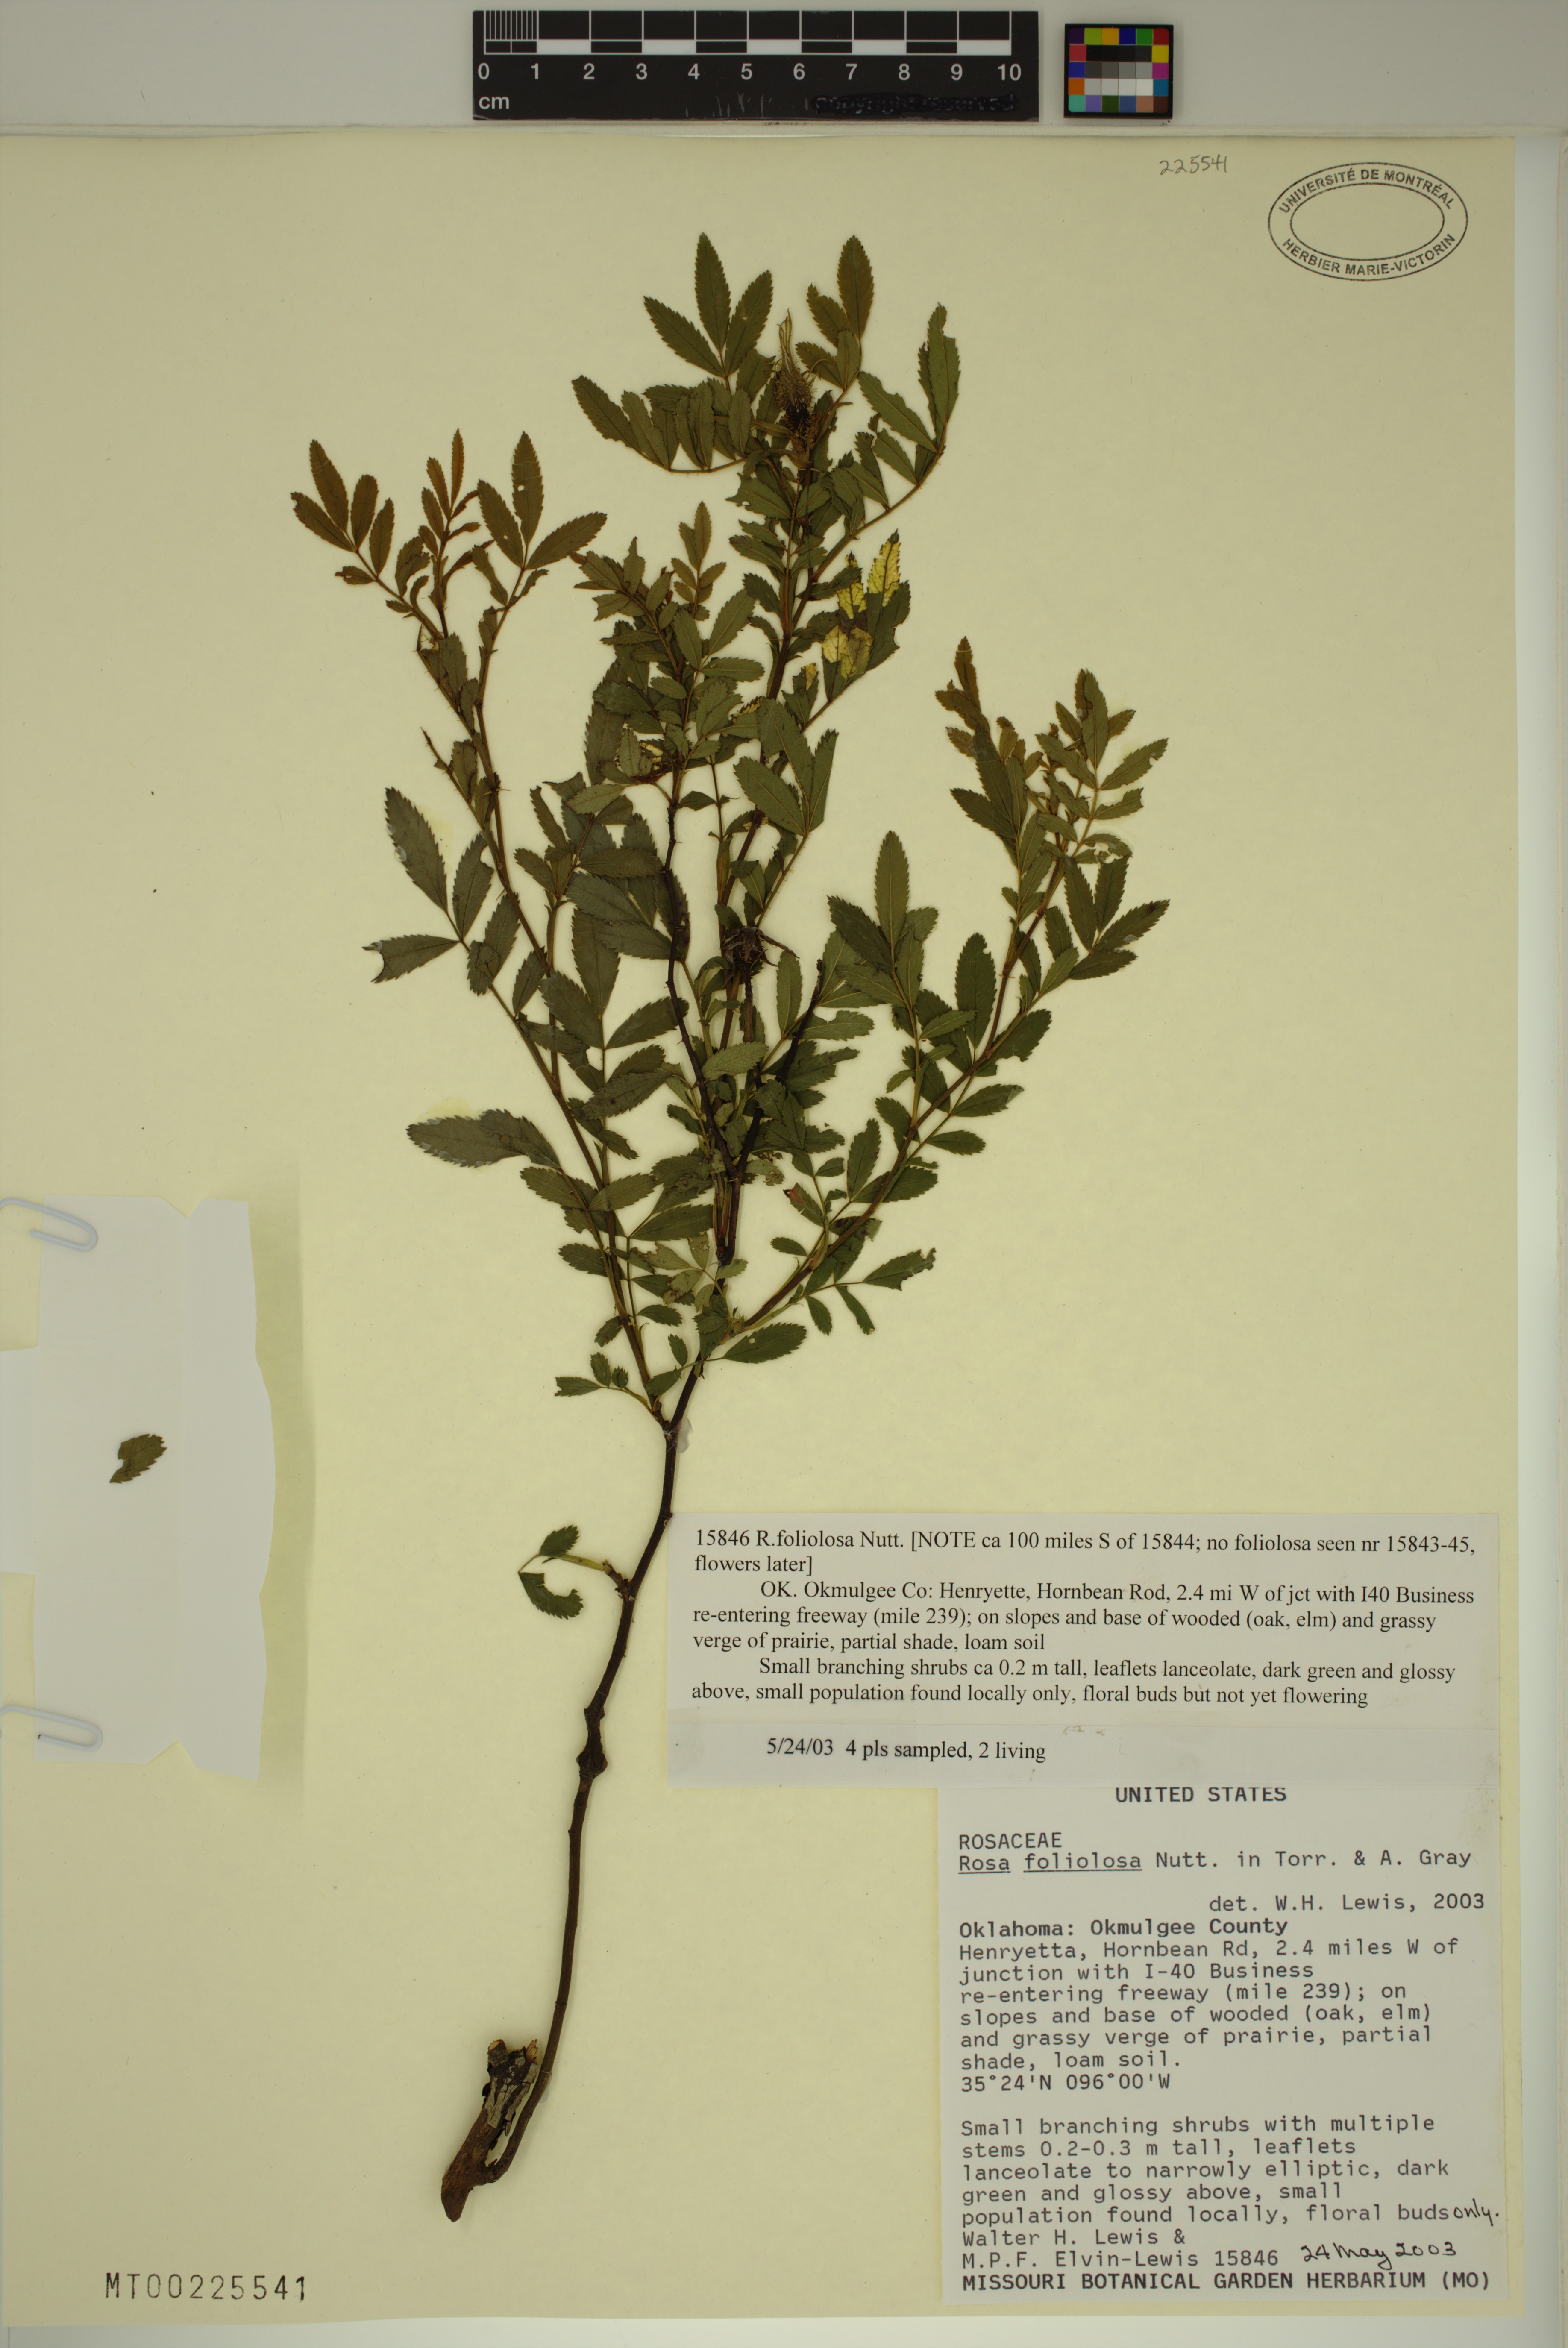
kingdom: Plantae
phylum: Tracheophyta
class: Magnoliopsida
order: Rosales
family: Rosaceae
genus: Rosa
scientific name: Rosa foliolosa
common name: White prairie rose
